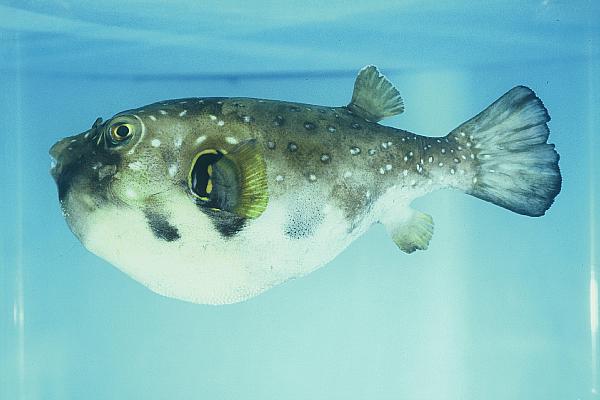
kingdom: Animalia
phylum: Chordata
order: Tetraodontiformes
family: Tetraodontidae
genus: Arothron
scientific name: Arothron hispidus
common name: Stripebelly puffer
